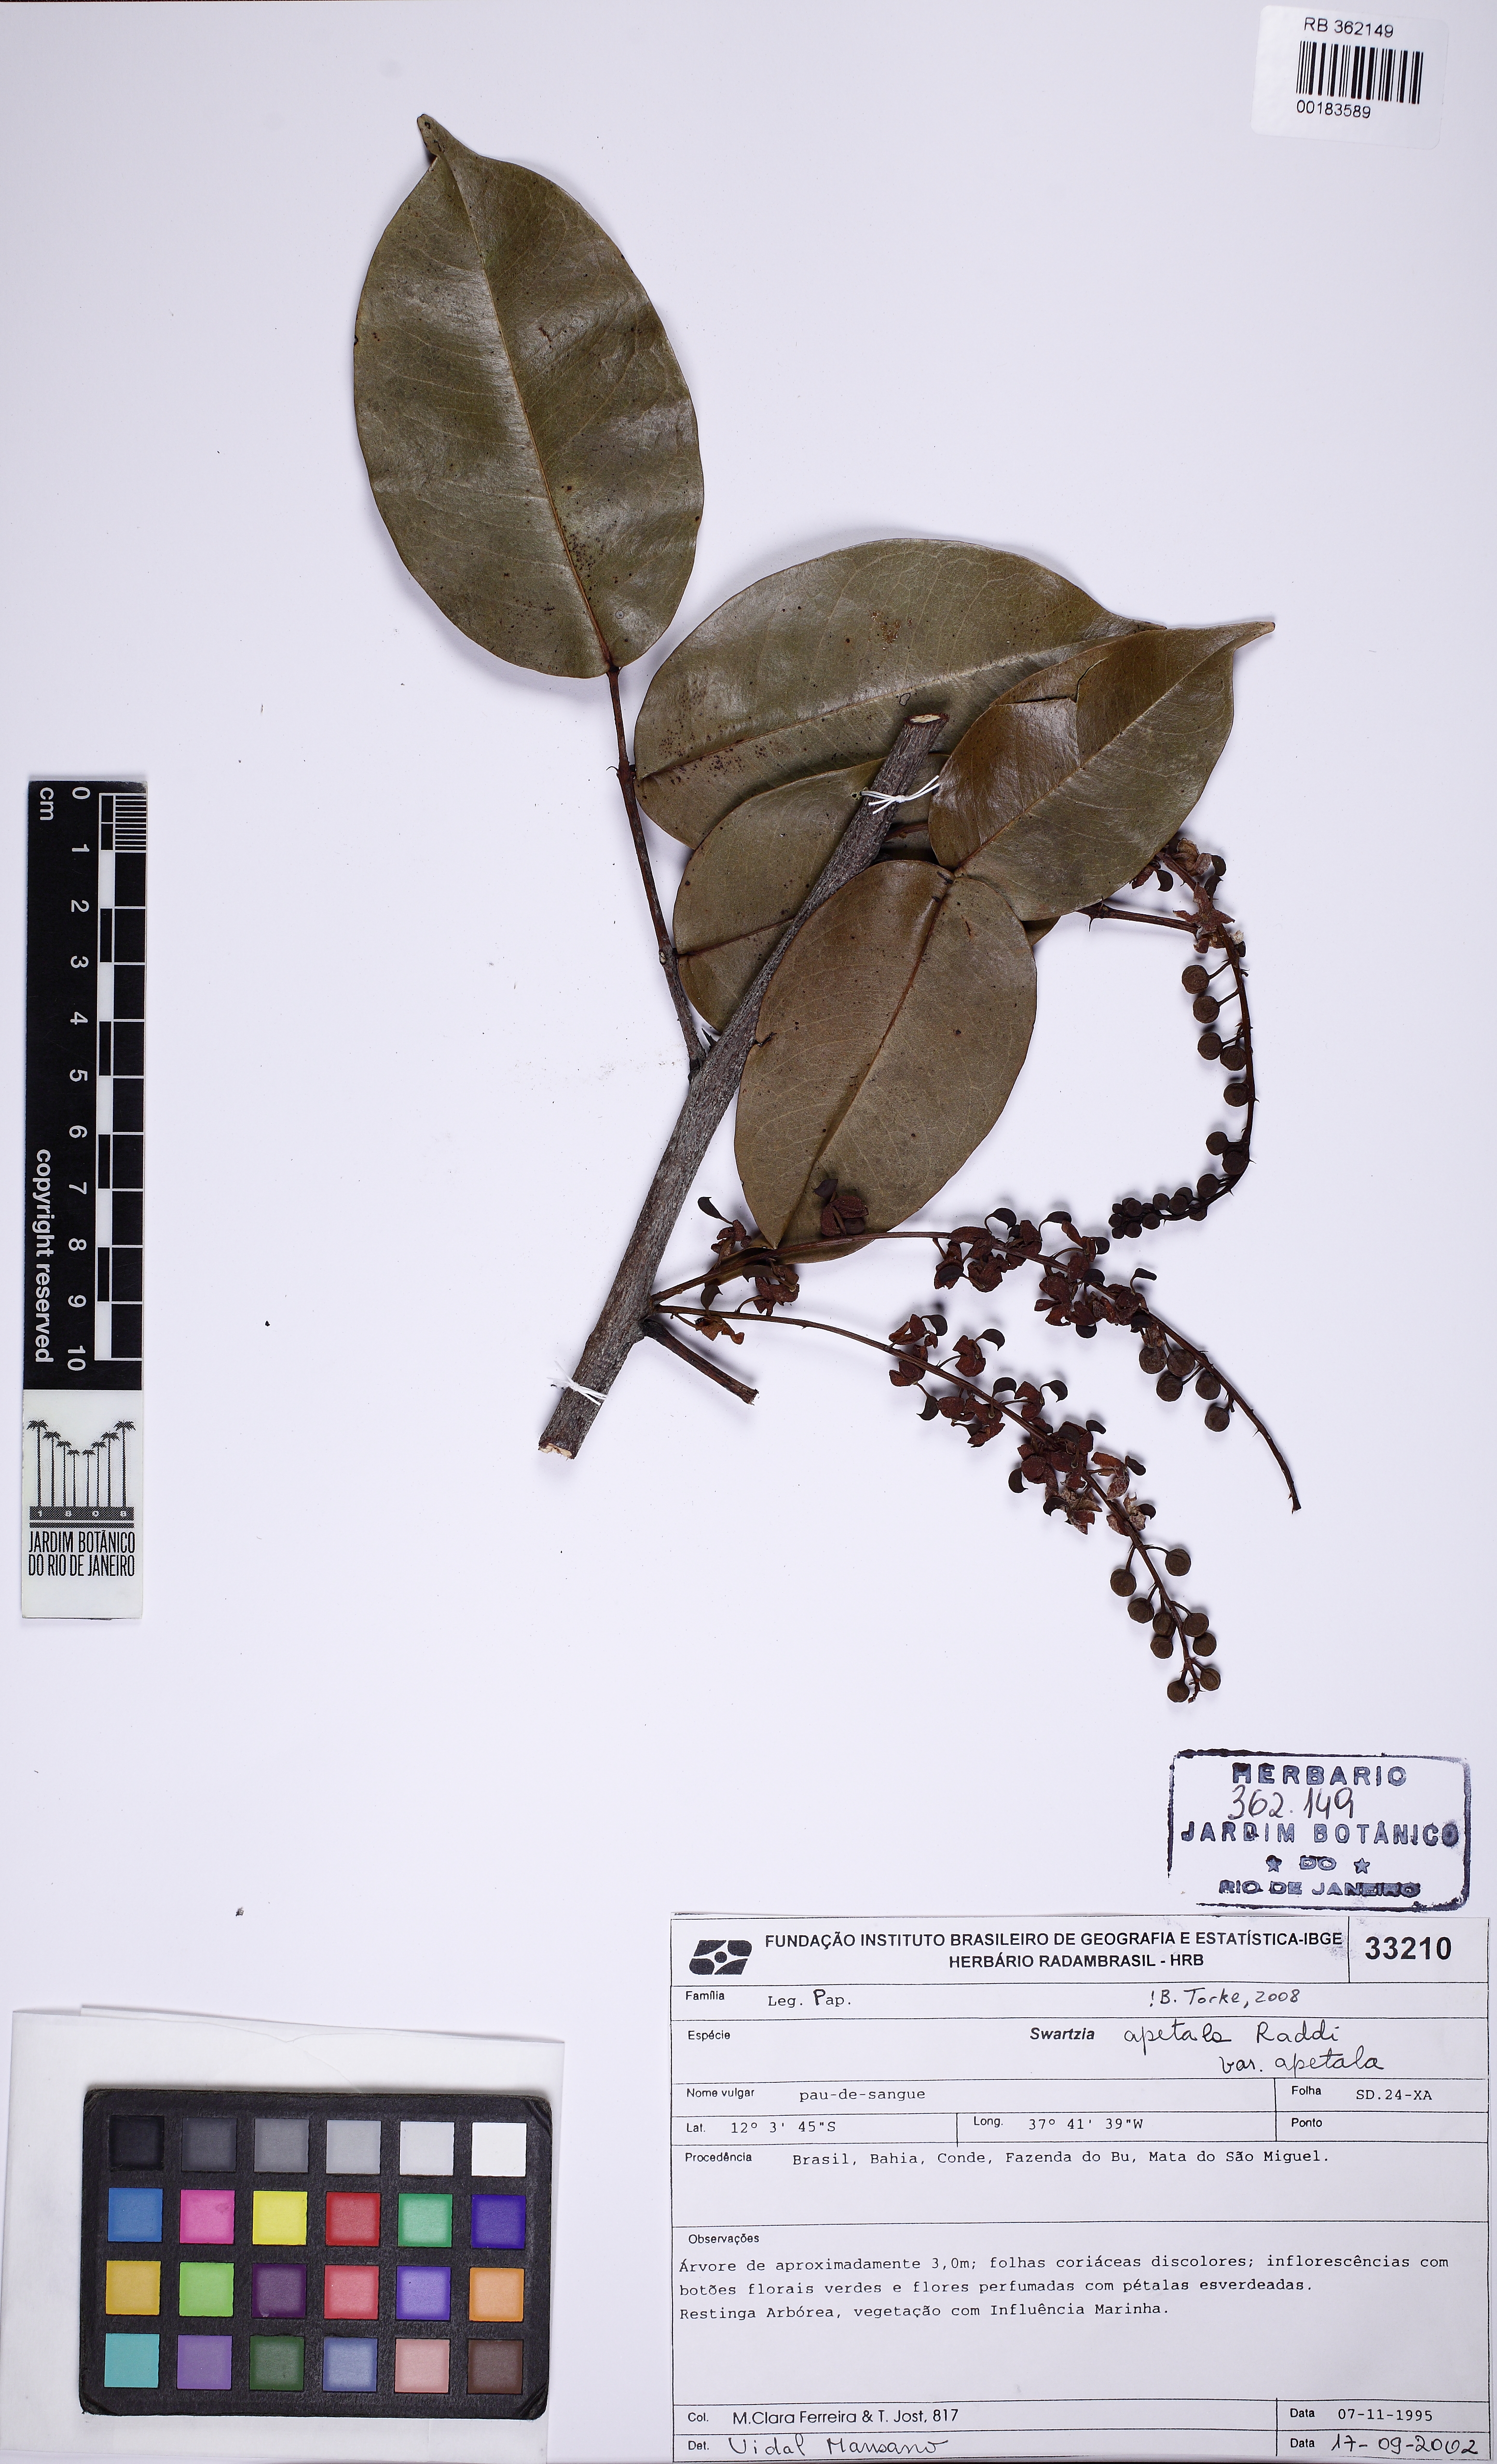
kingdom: Plantae
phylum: Tracheophyta
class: Magnoliopsida
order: Fabales
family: Fabaceae
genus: Swartzia
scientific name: Swartzia apetala
